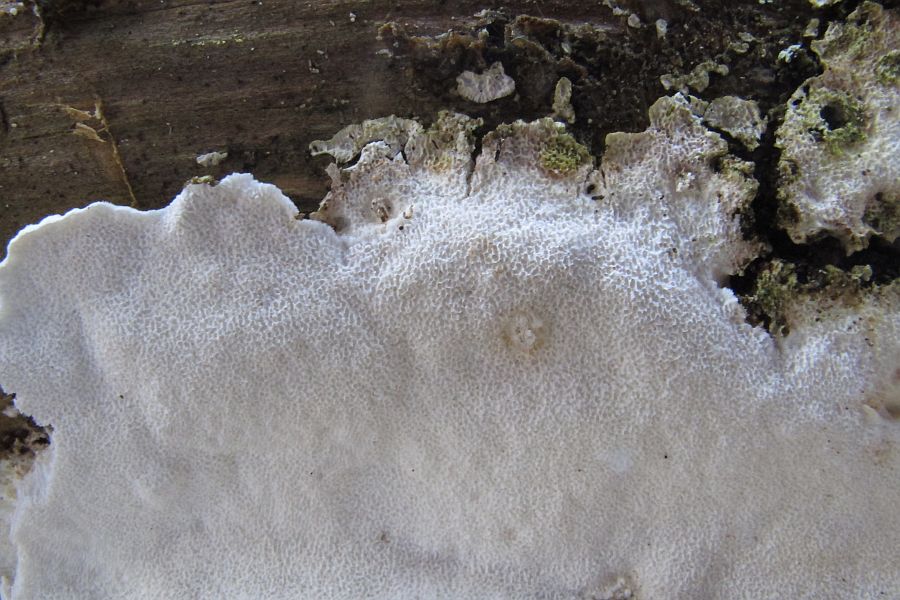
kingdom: Fungi
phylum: Basidiomycota
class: Agaricomycetes
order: Polyporales
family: Gelatoporiaceae
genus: Cinereomyces
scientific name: Cinereomyces lindbladii
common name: almindelig gråporesvamp
